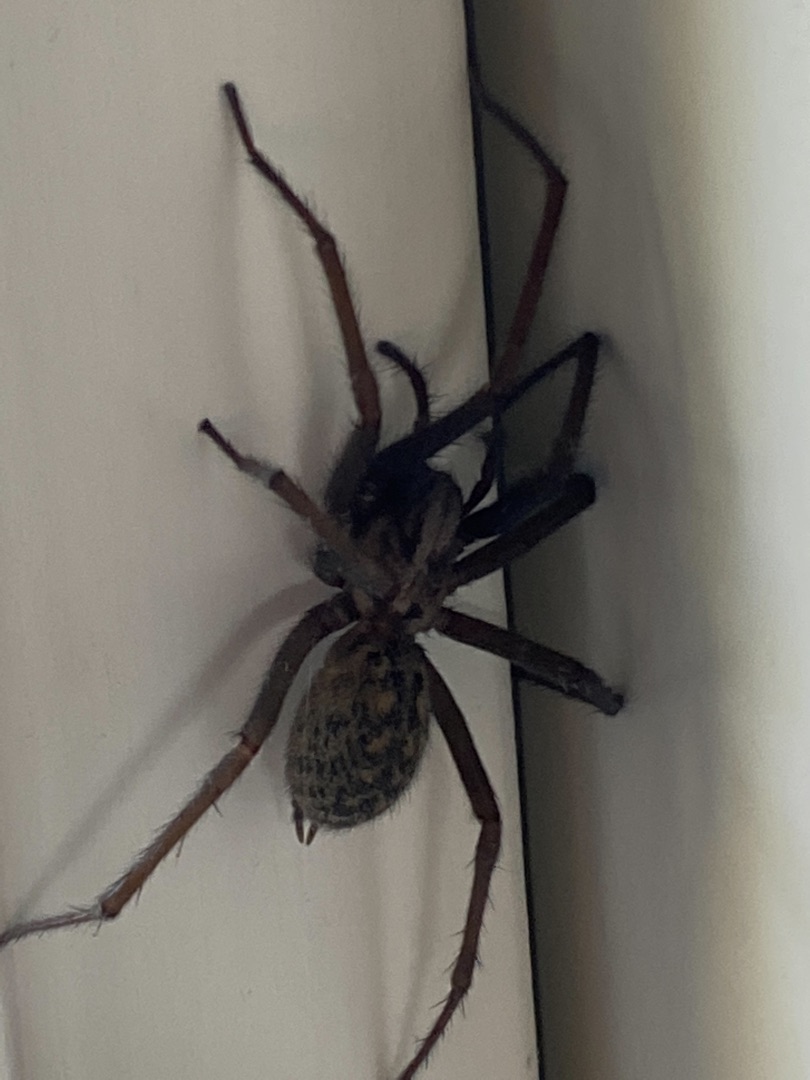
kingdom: Animalia
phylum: Arthropoda
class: Arachnida
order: Araneae
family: Agelenidae
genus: Eratigena
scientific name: Eratigena atrica
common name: Stor husedderkop
